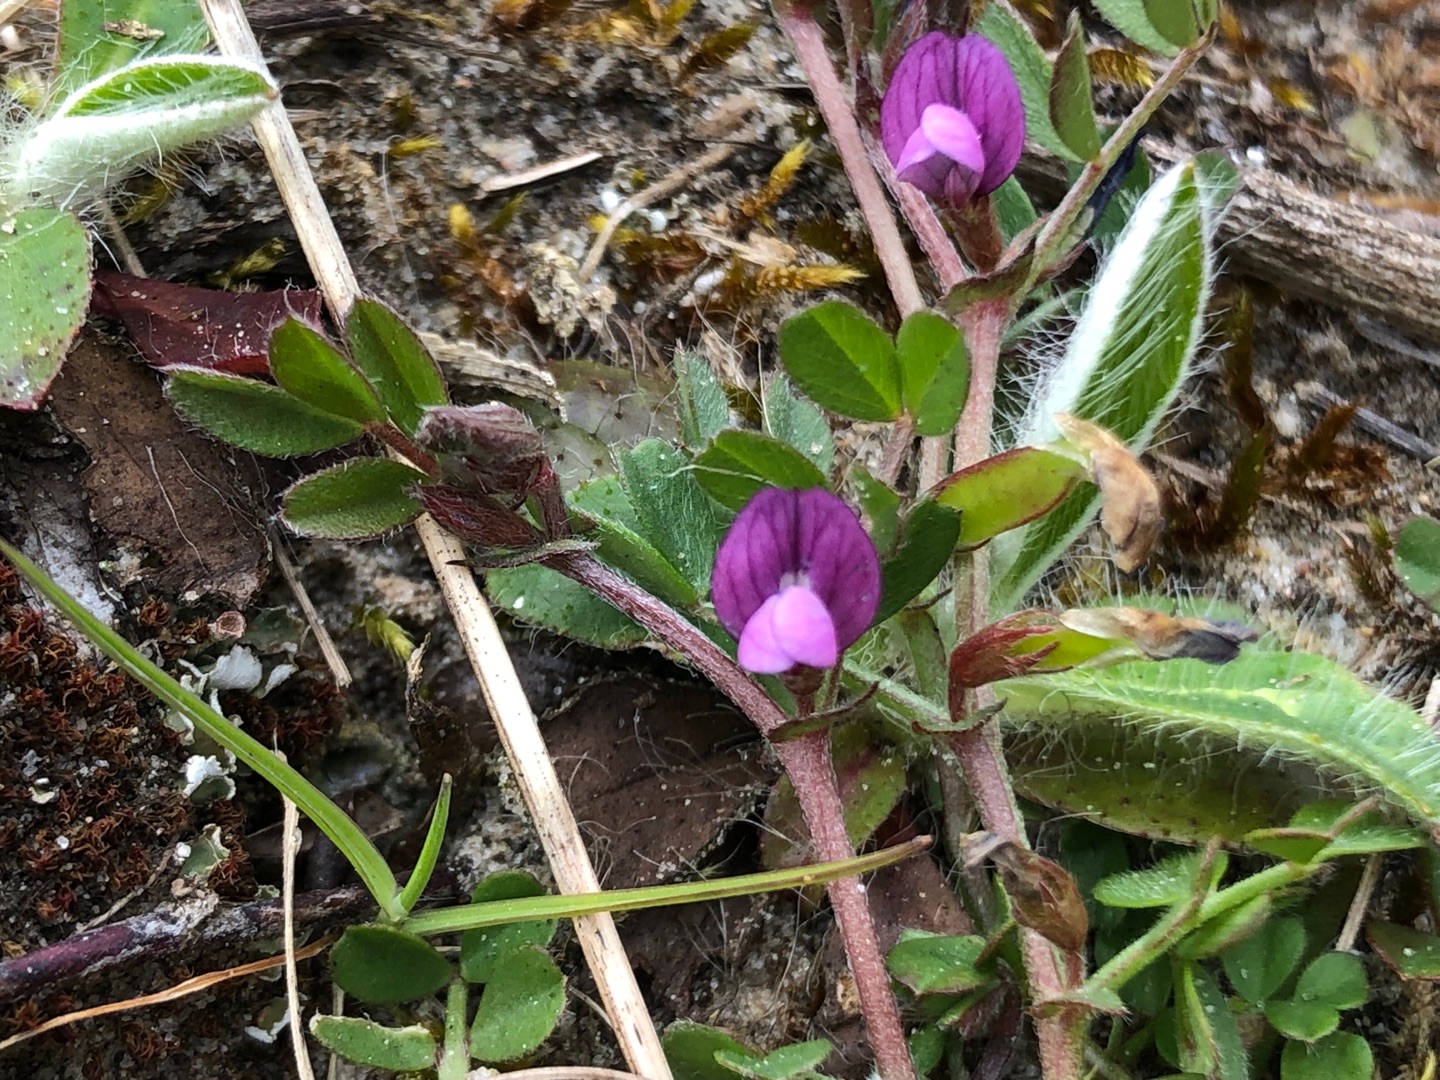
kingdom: Plantae
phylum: Tracheophyta
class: Magnoliopsida
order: Fabales
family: Fabaceae
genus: Vicia
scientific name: Vicia lathyroides
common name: Vår-vikke
